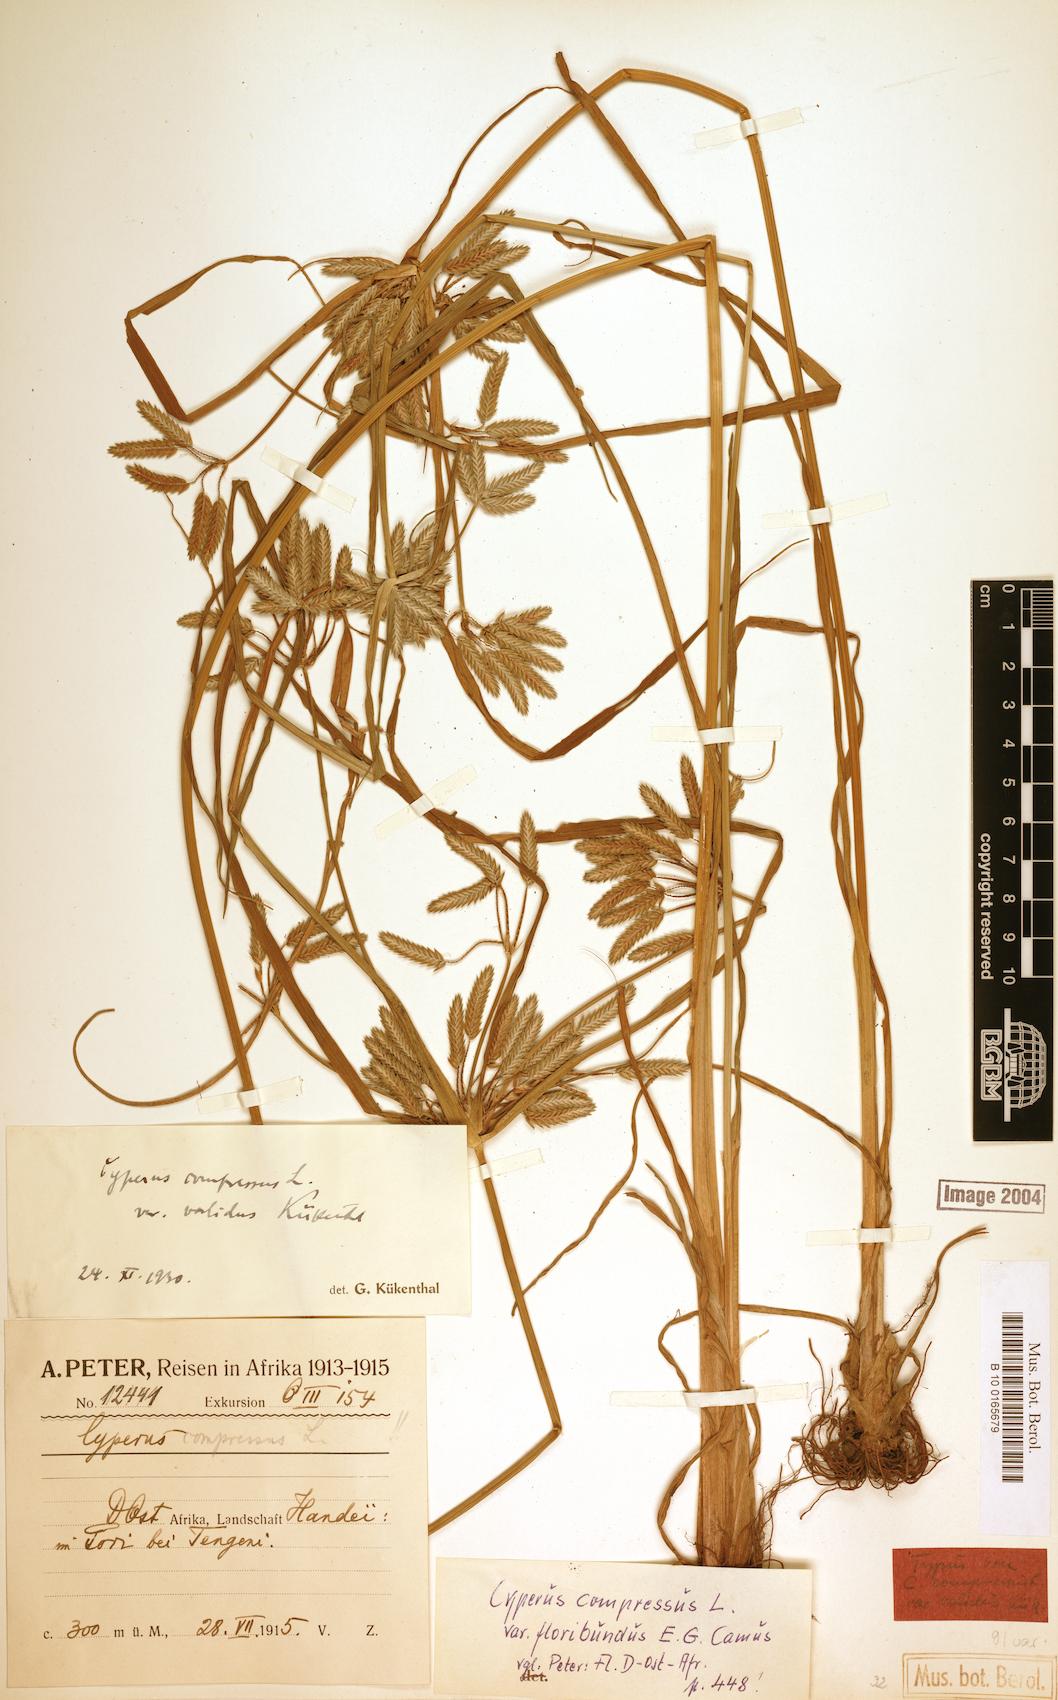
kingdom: Plantae
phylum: Tracheophyta
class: Liliopsida
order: Poales
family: Cyperaceae
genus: Cyperus
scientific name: Cyperus compressus
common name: Poorland flatsedge
